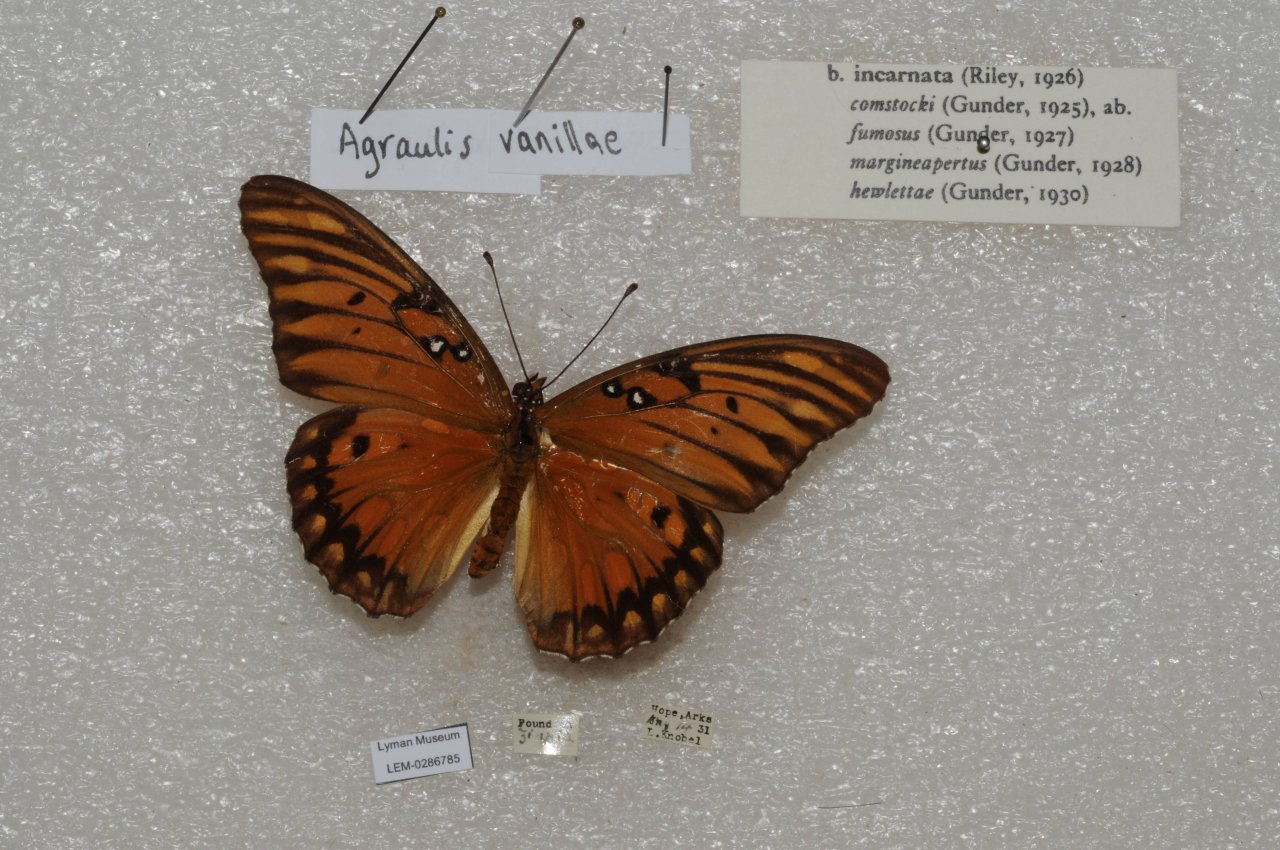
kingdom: Animalia
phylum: Arthropoda
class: Insecta
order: Lepidoptera
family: Nymphalidae
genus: Dione
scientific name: Dione vanillae
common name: Gulf Fritillary
